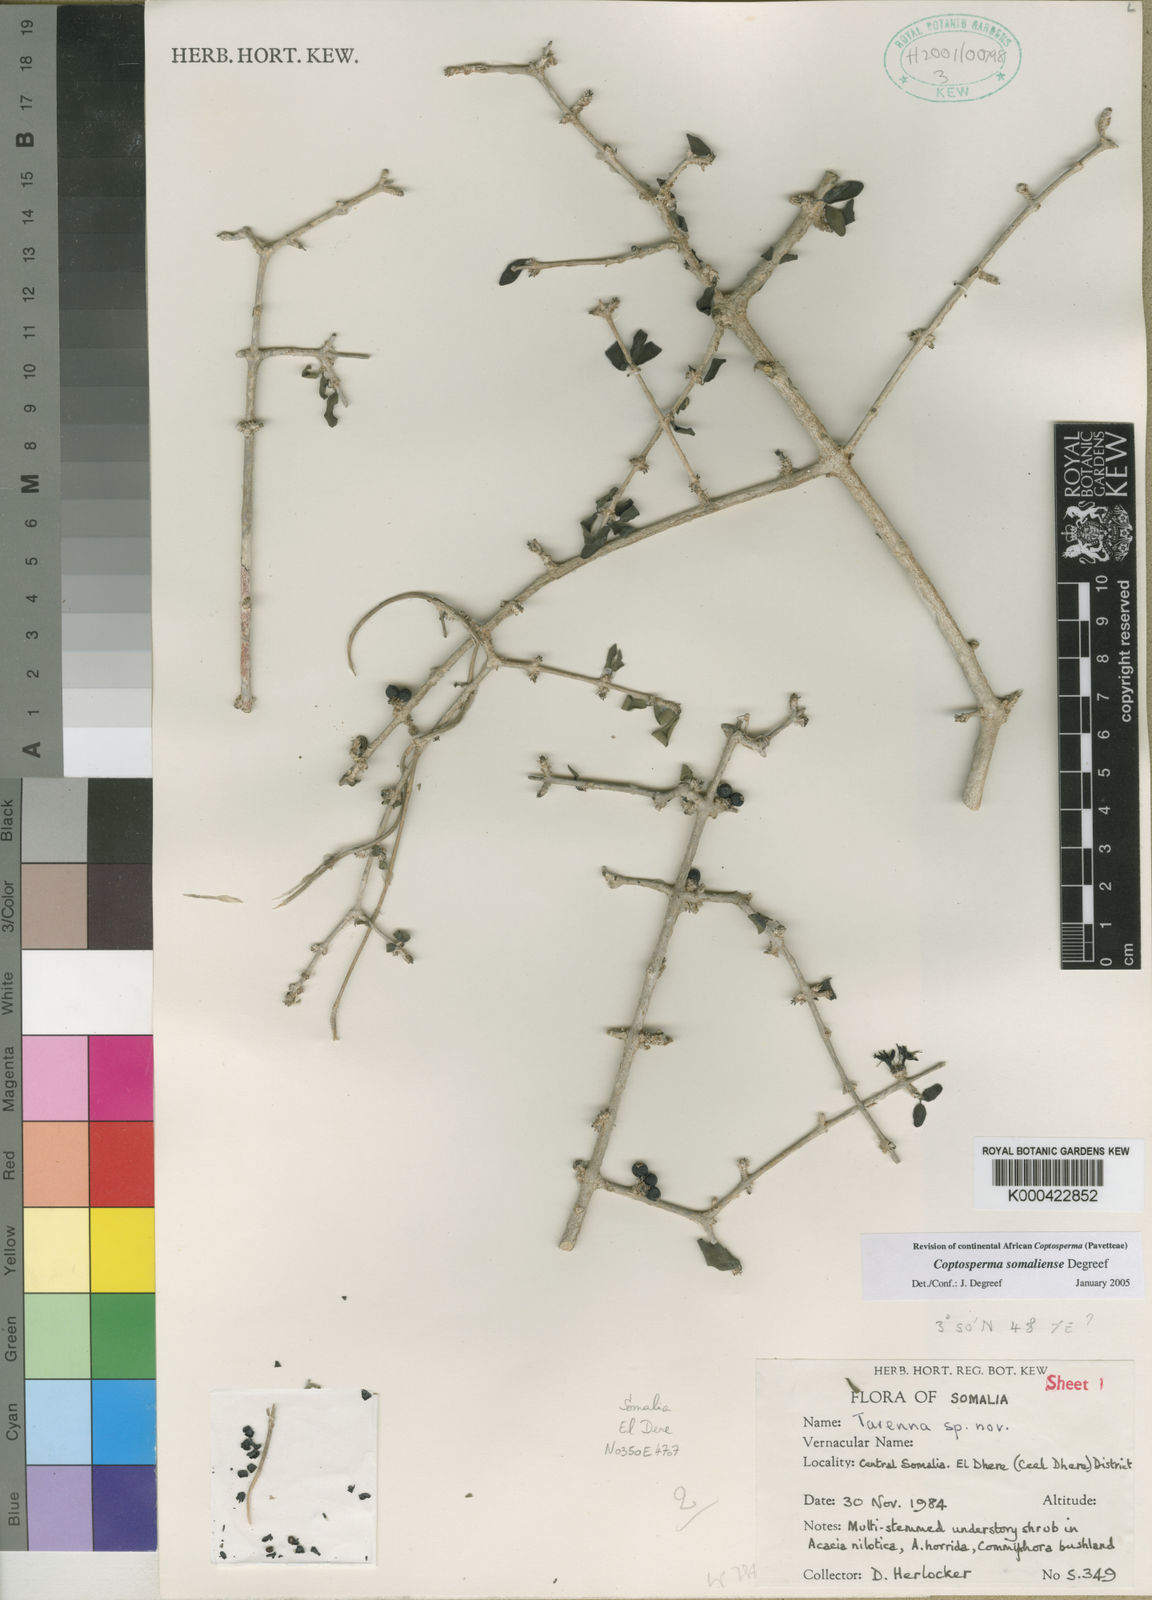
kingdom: Plantae
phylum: Tracheophyta
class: Magnoliopsida
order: Gentianales
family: Rubiaceae
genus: Coptosperma
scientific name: Coptosperma somaliense
